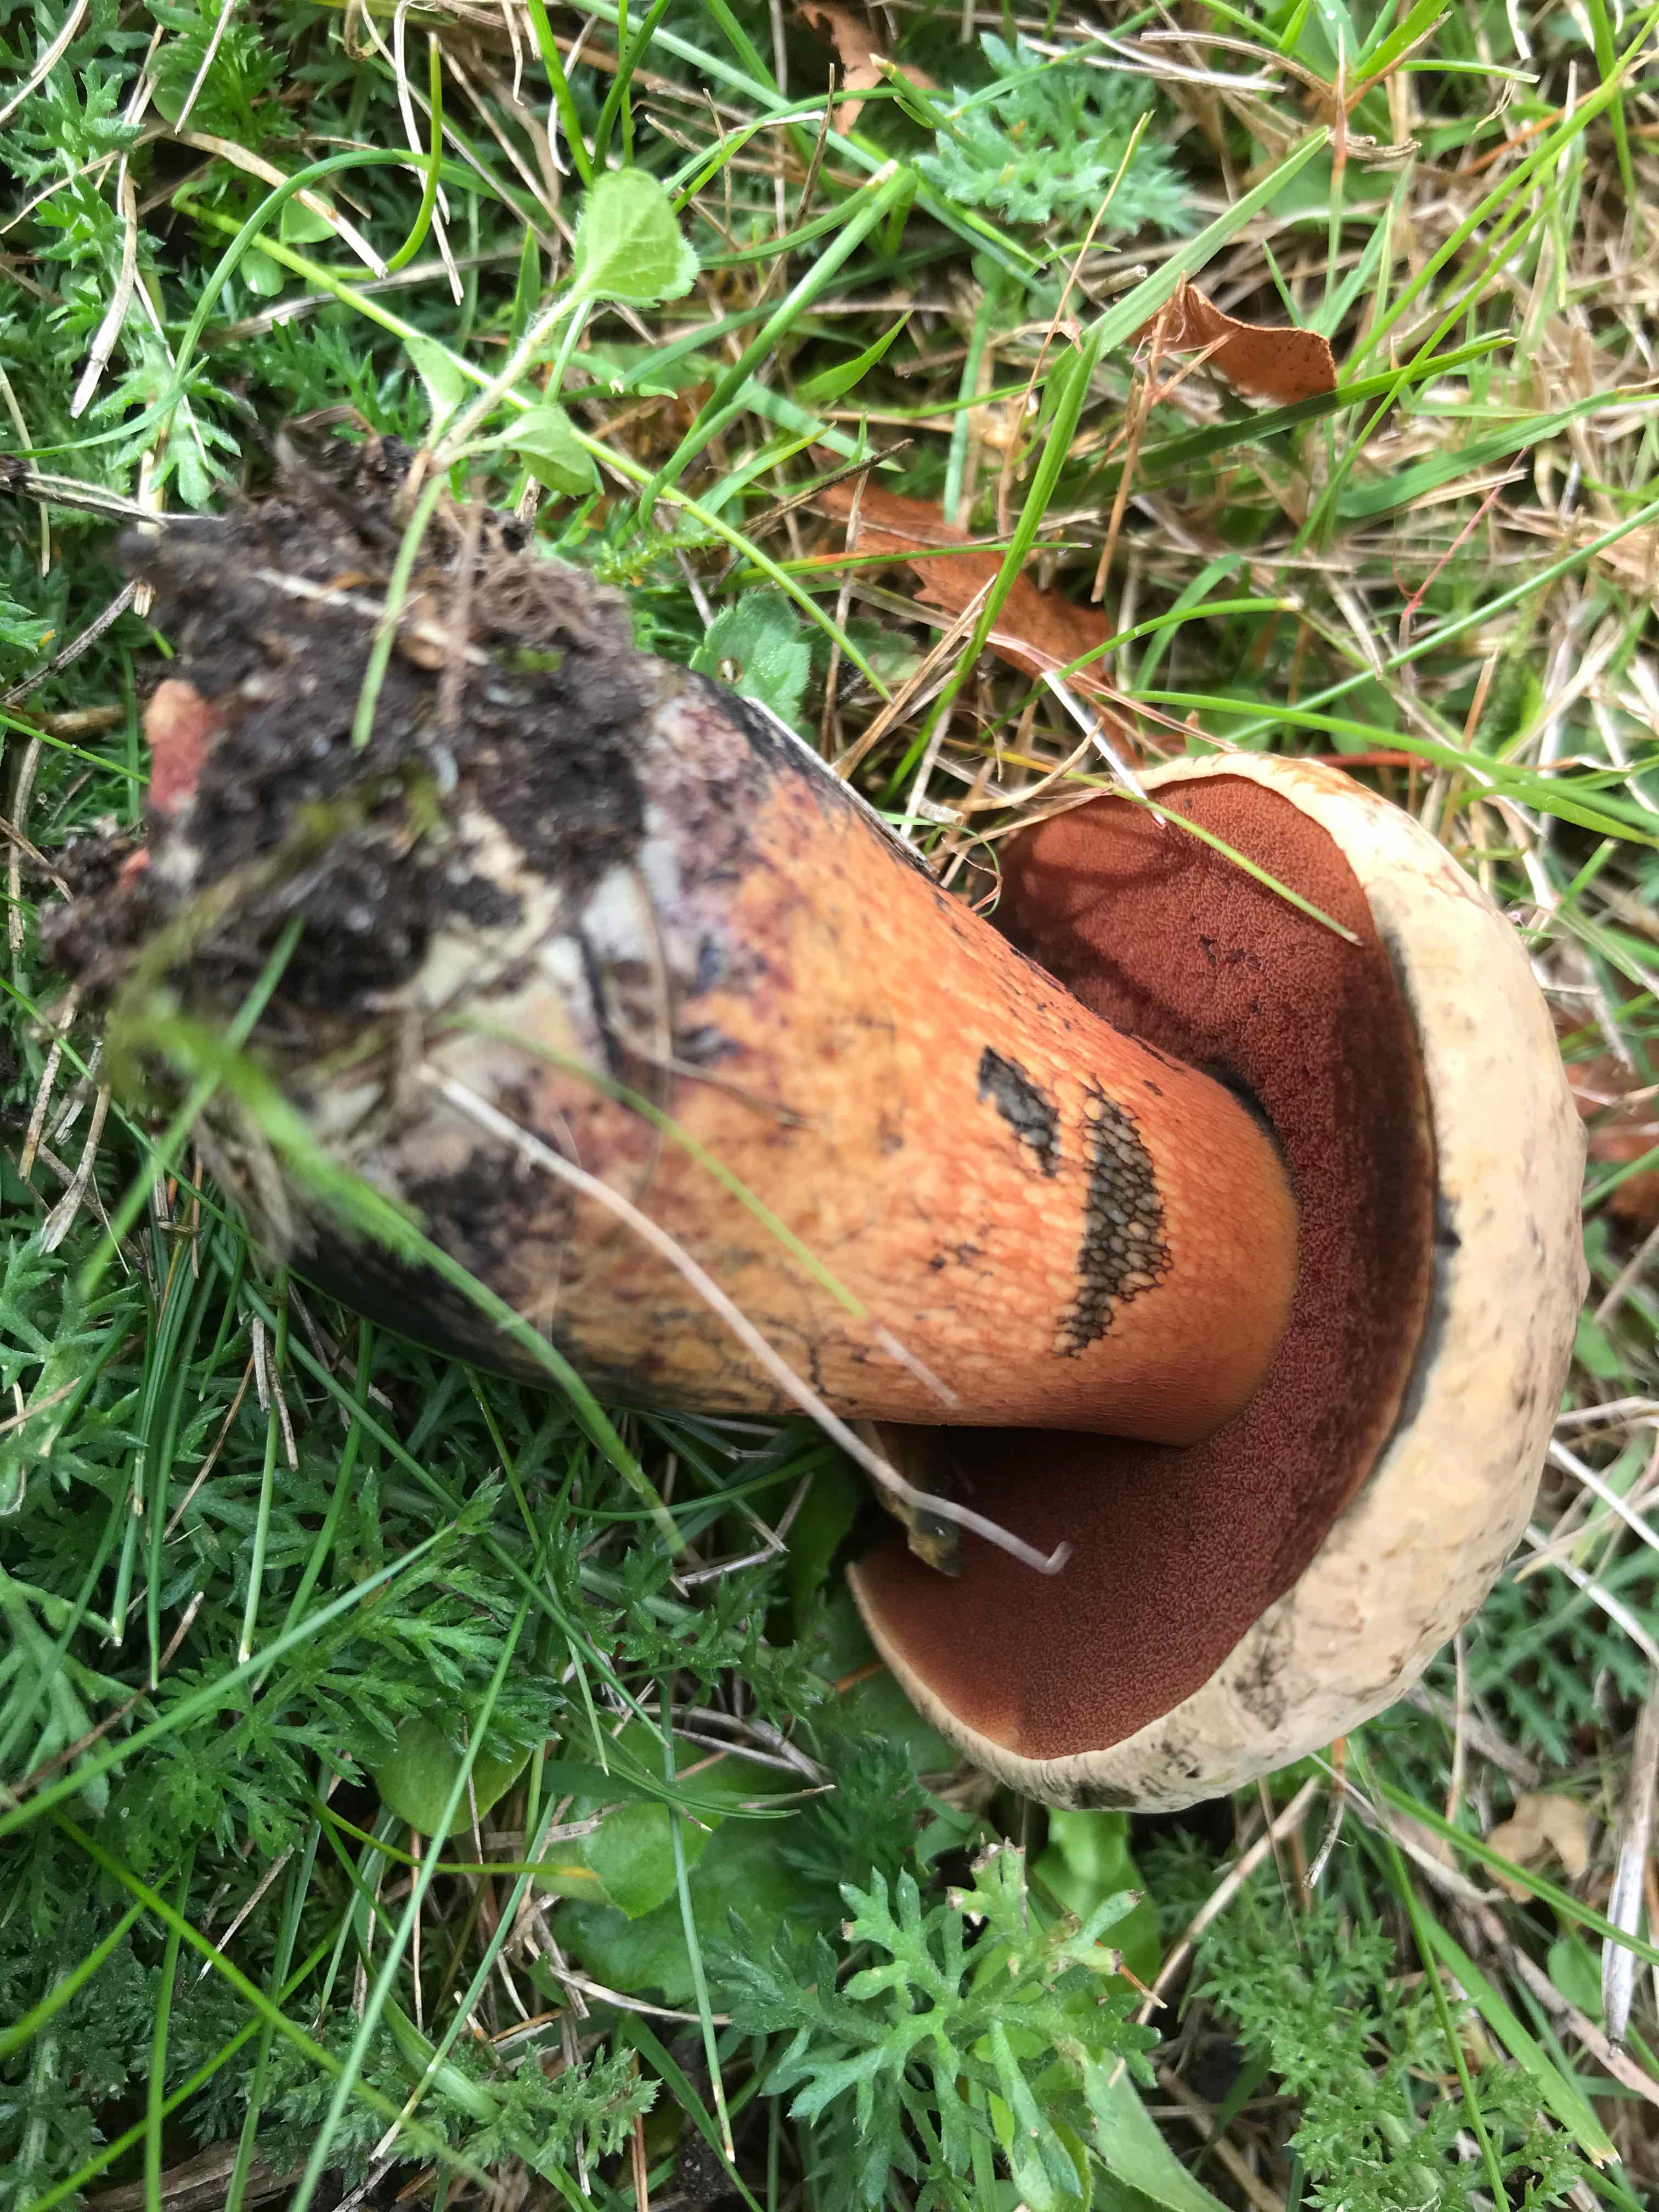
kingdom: Fungi
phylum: Basidiomycota
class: Agaricomycetes
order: Boletales
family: Boletaceae
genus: Suillellus
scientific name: Suillellus luridus
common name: netstokket indigorørhat
